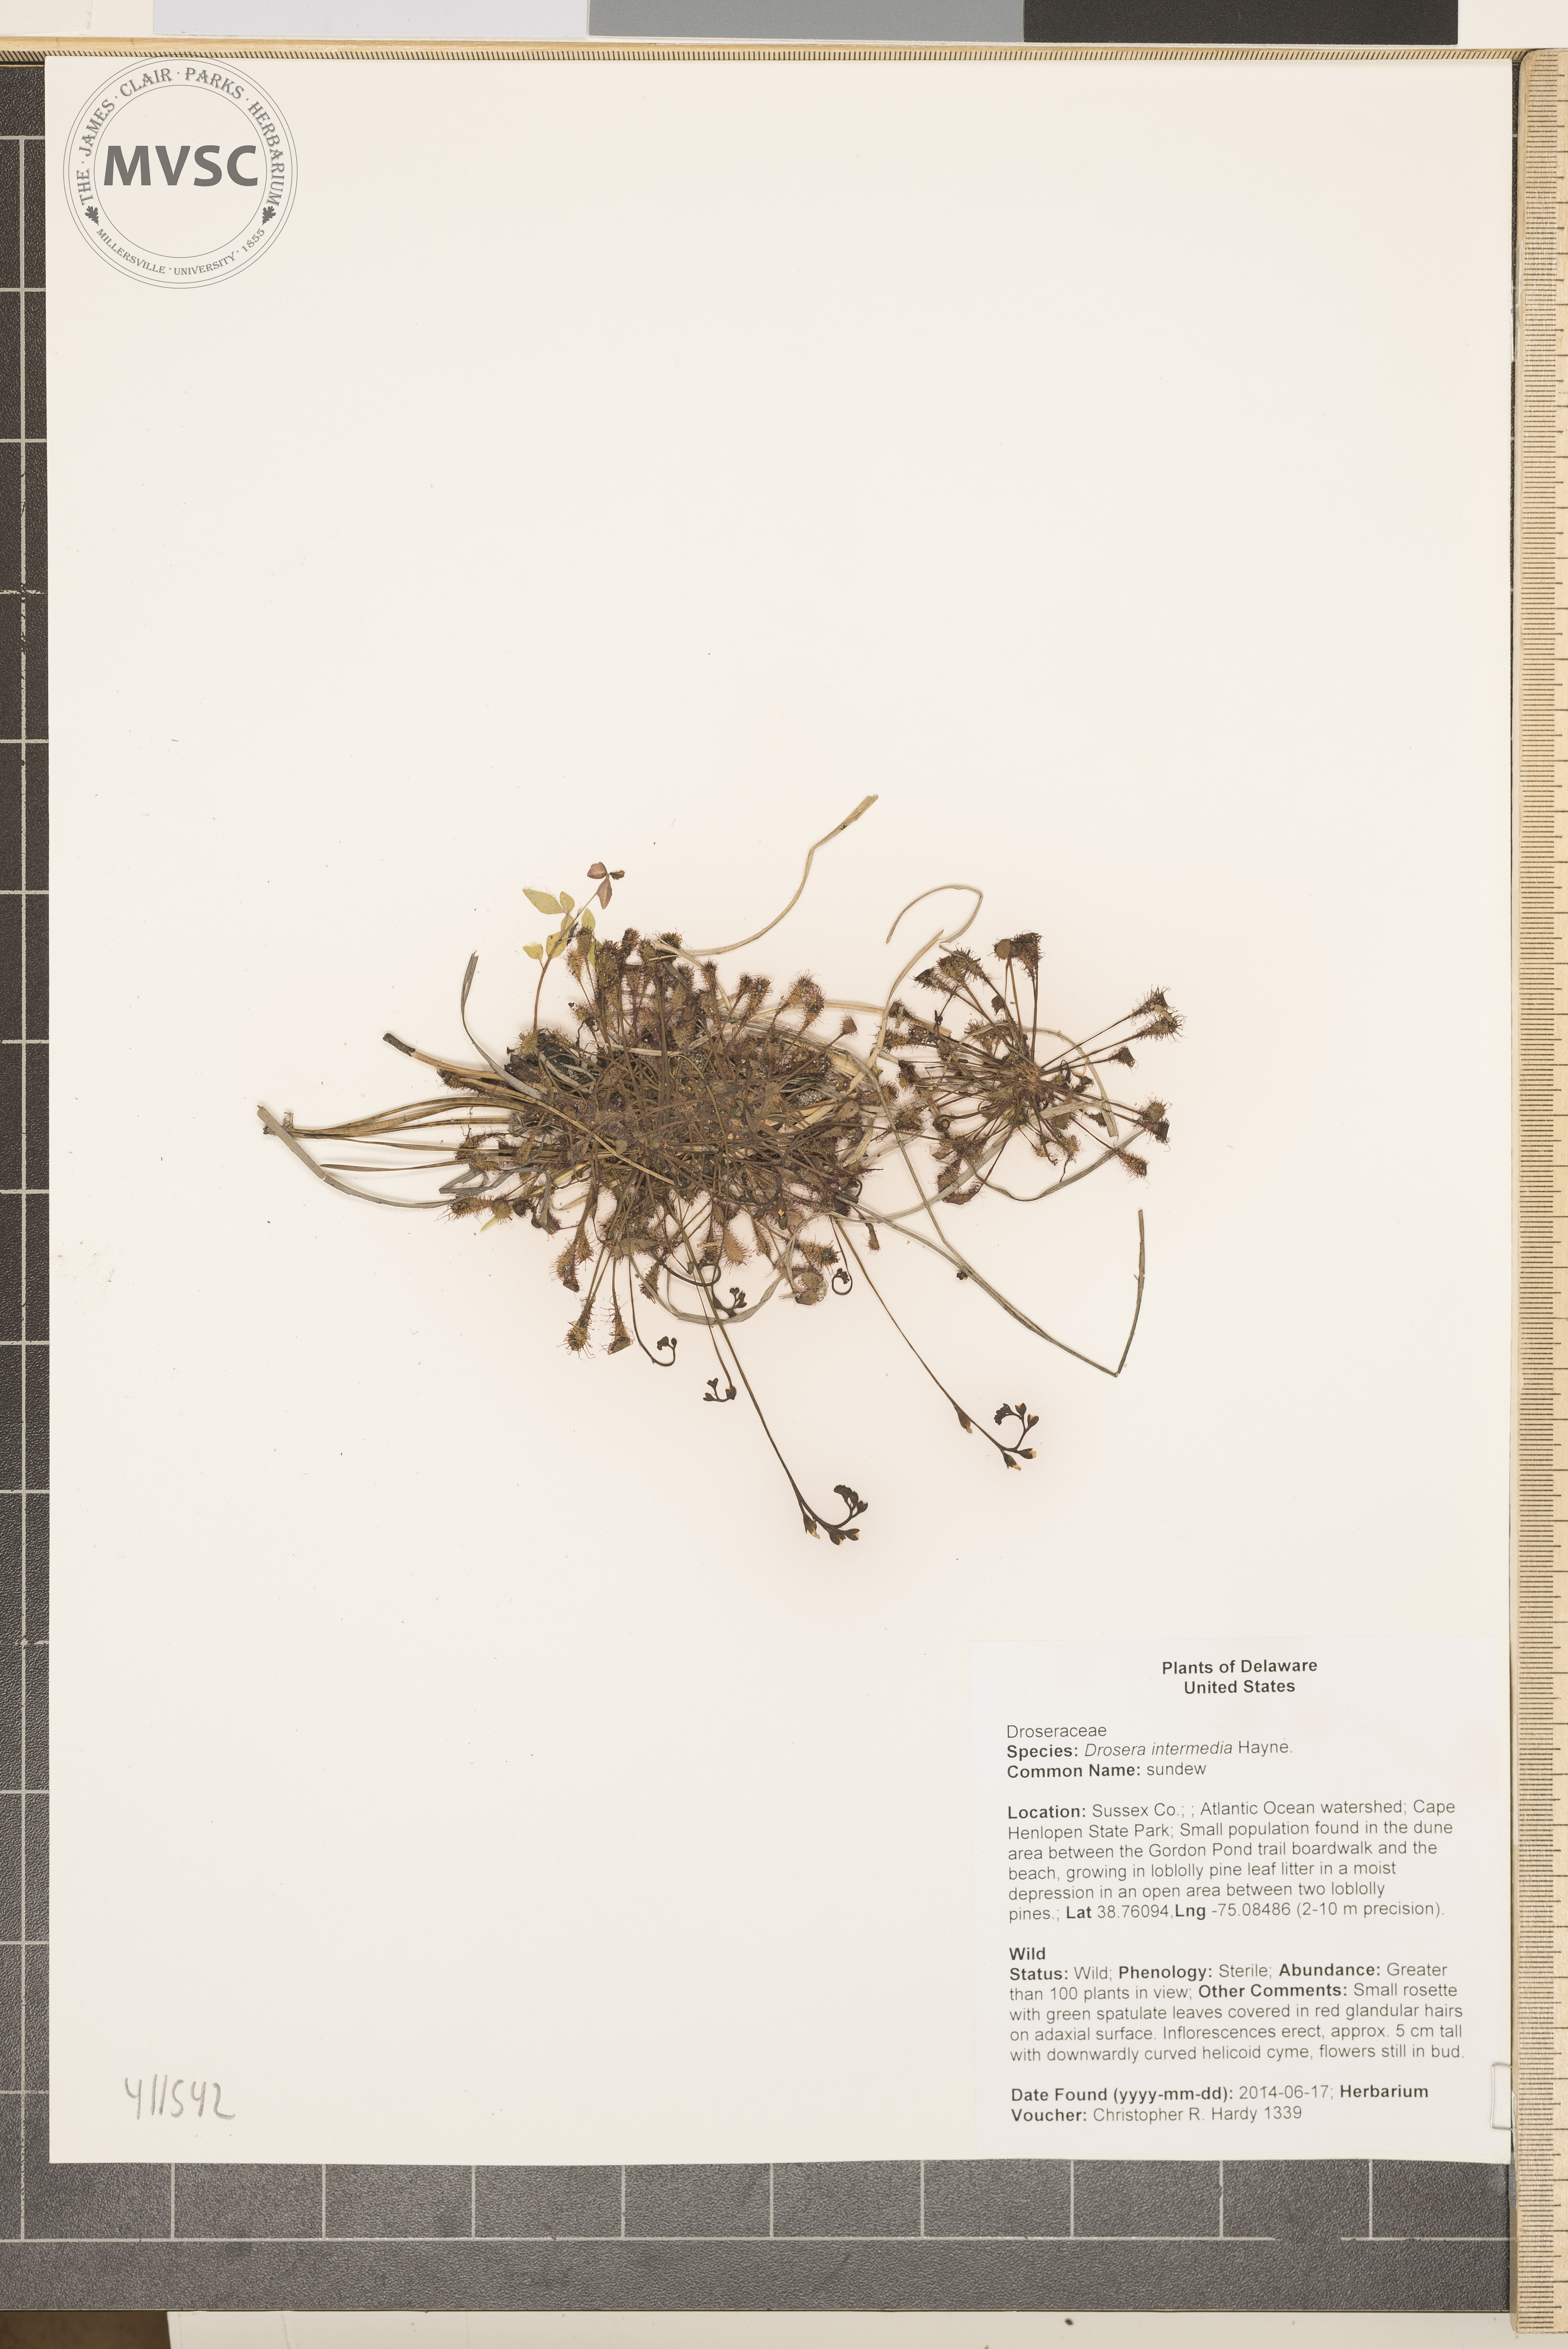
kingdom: Plantae
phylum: Tracheophyta
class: Magnoliopsida
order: Caryophyllales
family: Droseraceae
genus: Drosera
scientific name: Drosera intermedia
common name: sundew
